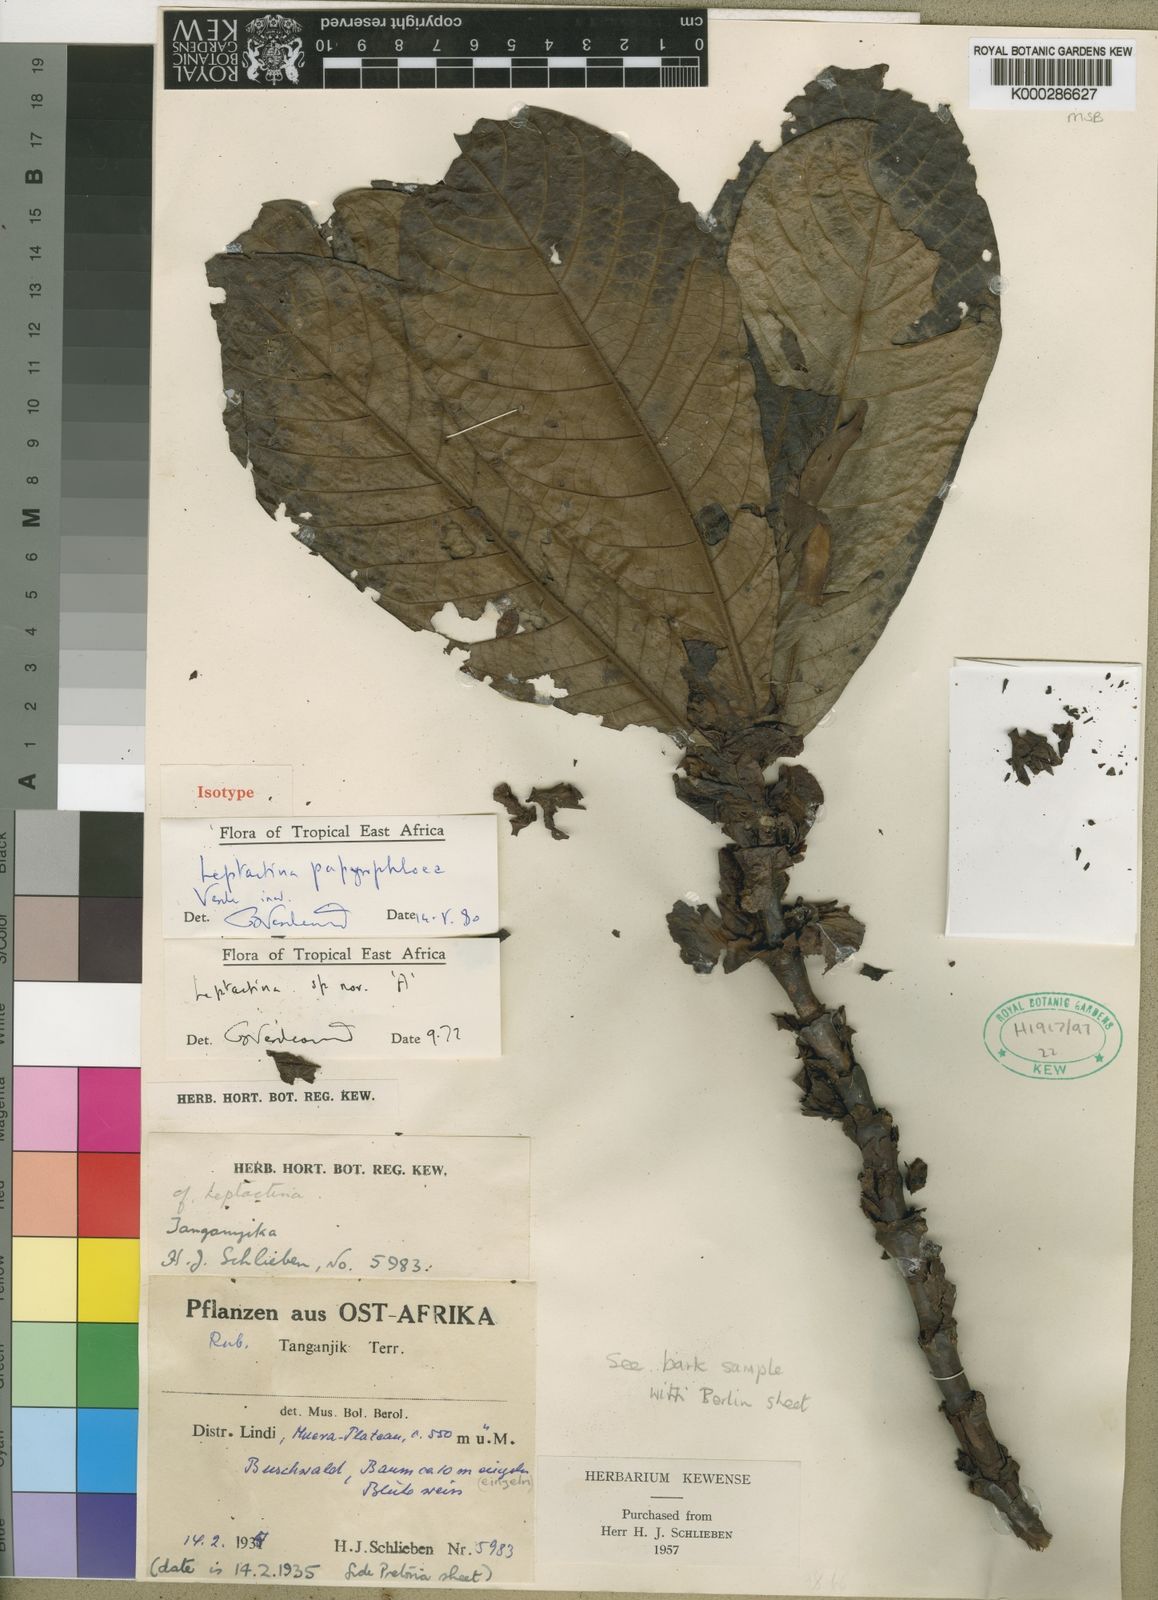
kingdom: Plantae
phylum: Tracheophyta
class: Magnoliopsida
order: Gentianales
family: Rubiaceae
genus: Leptactina
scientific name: Leptactina papyrophloea
